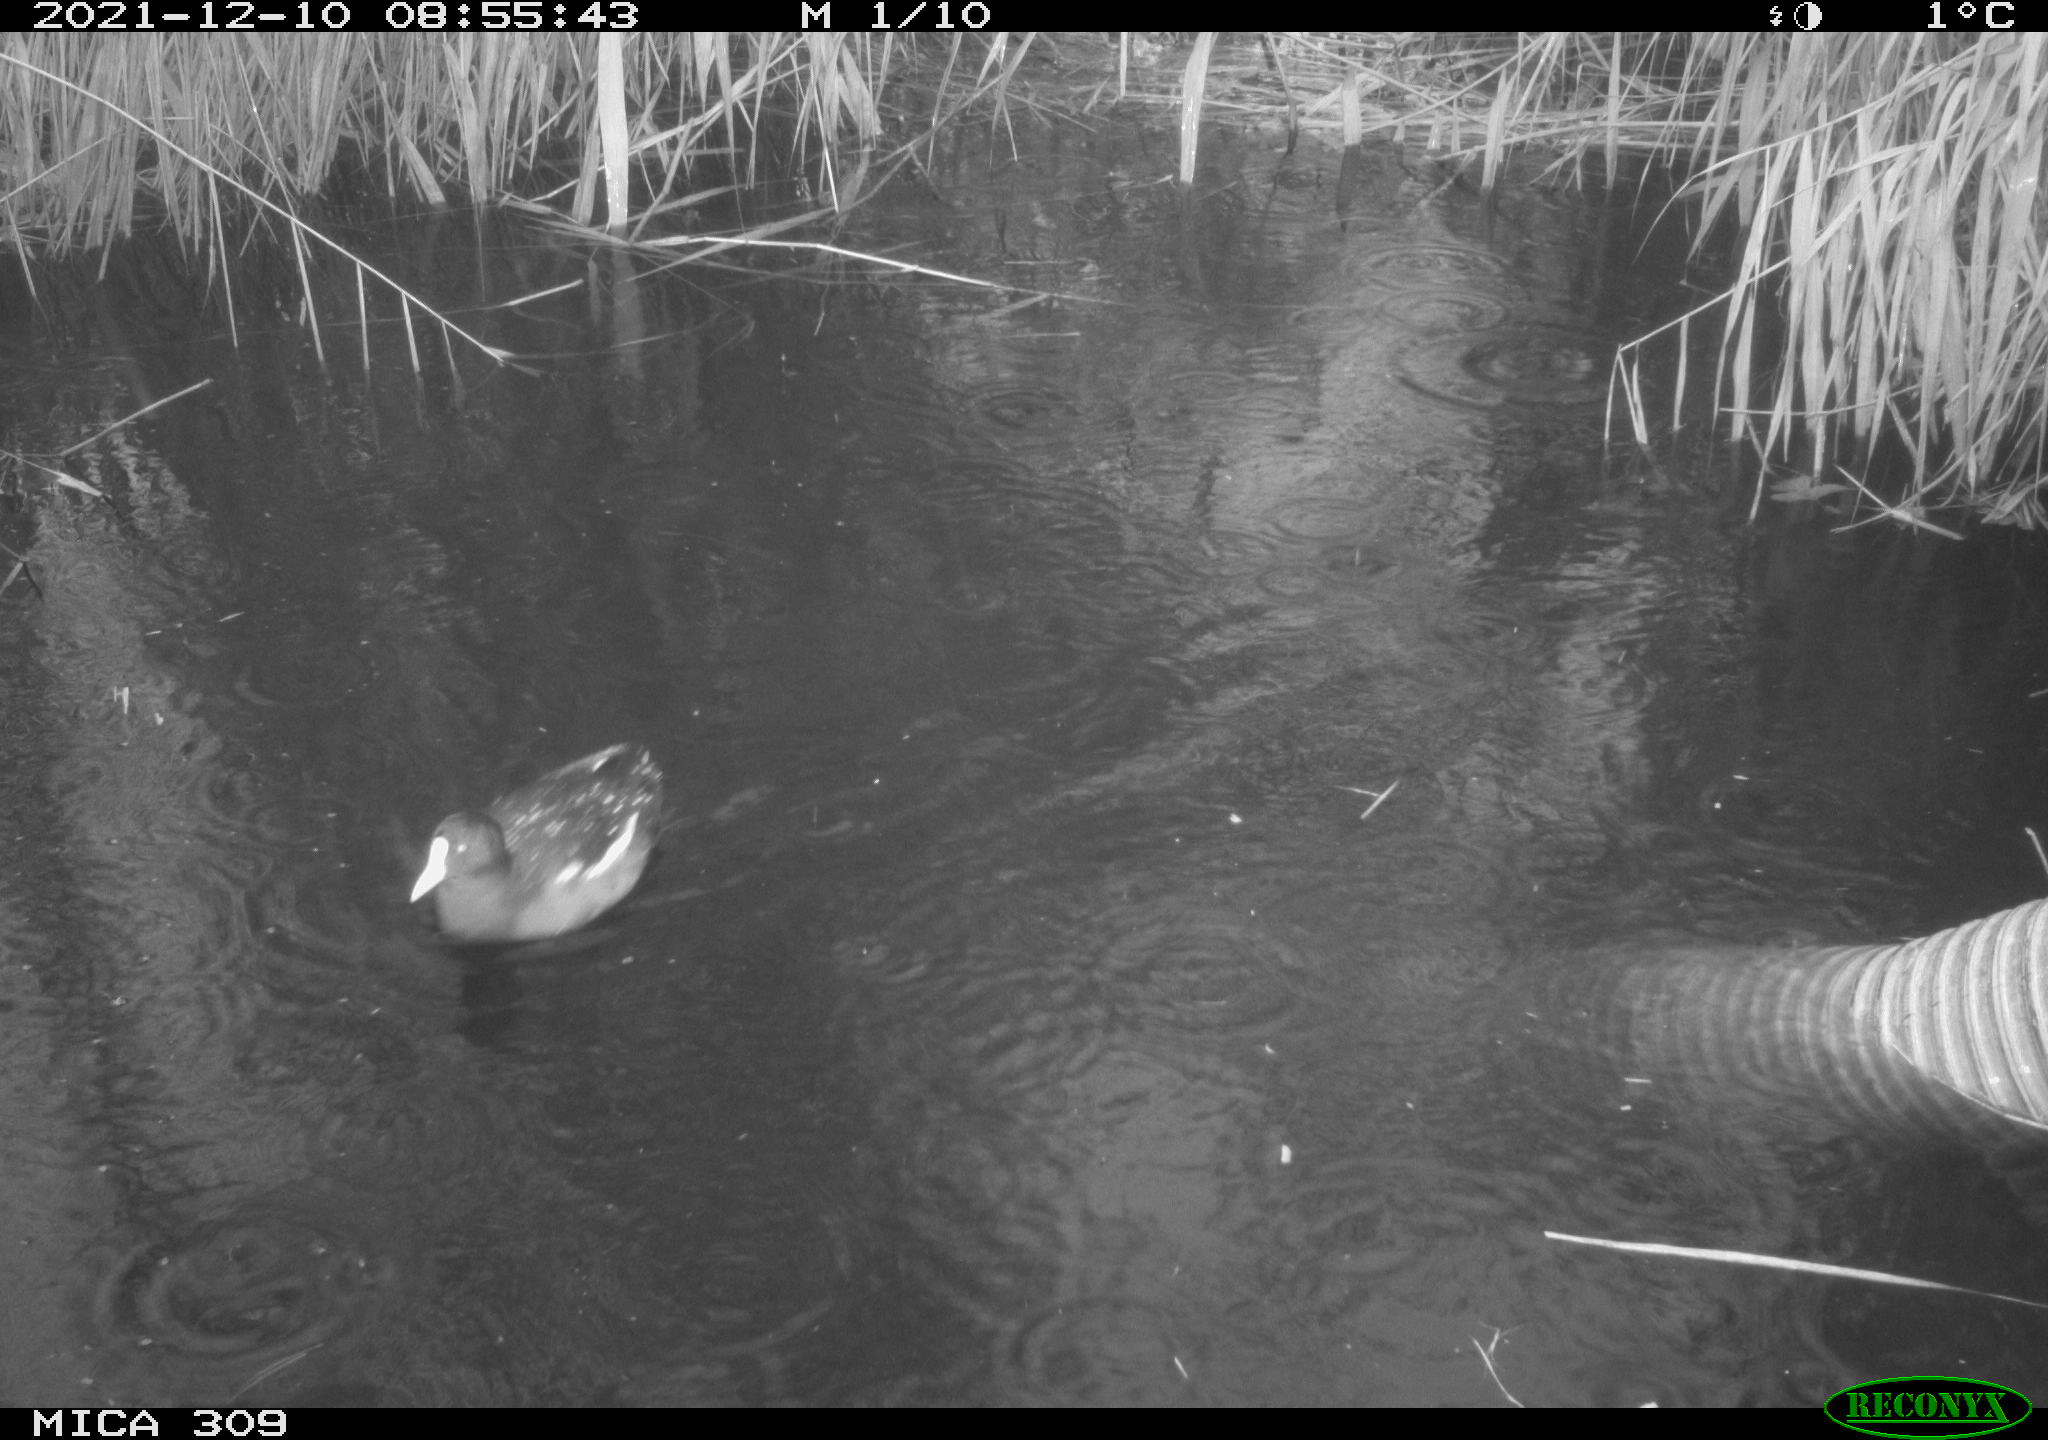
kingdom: Animalia
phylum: Chordata
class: Aves
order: Gruiformes
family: Rallidae
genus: Gallinula
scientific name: Gallinula chloropus
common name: Common moorhen
